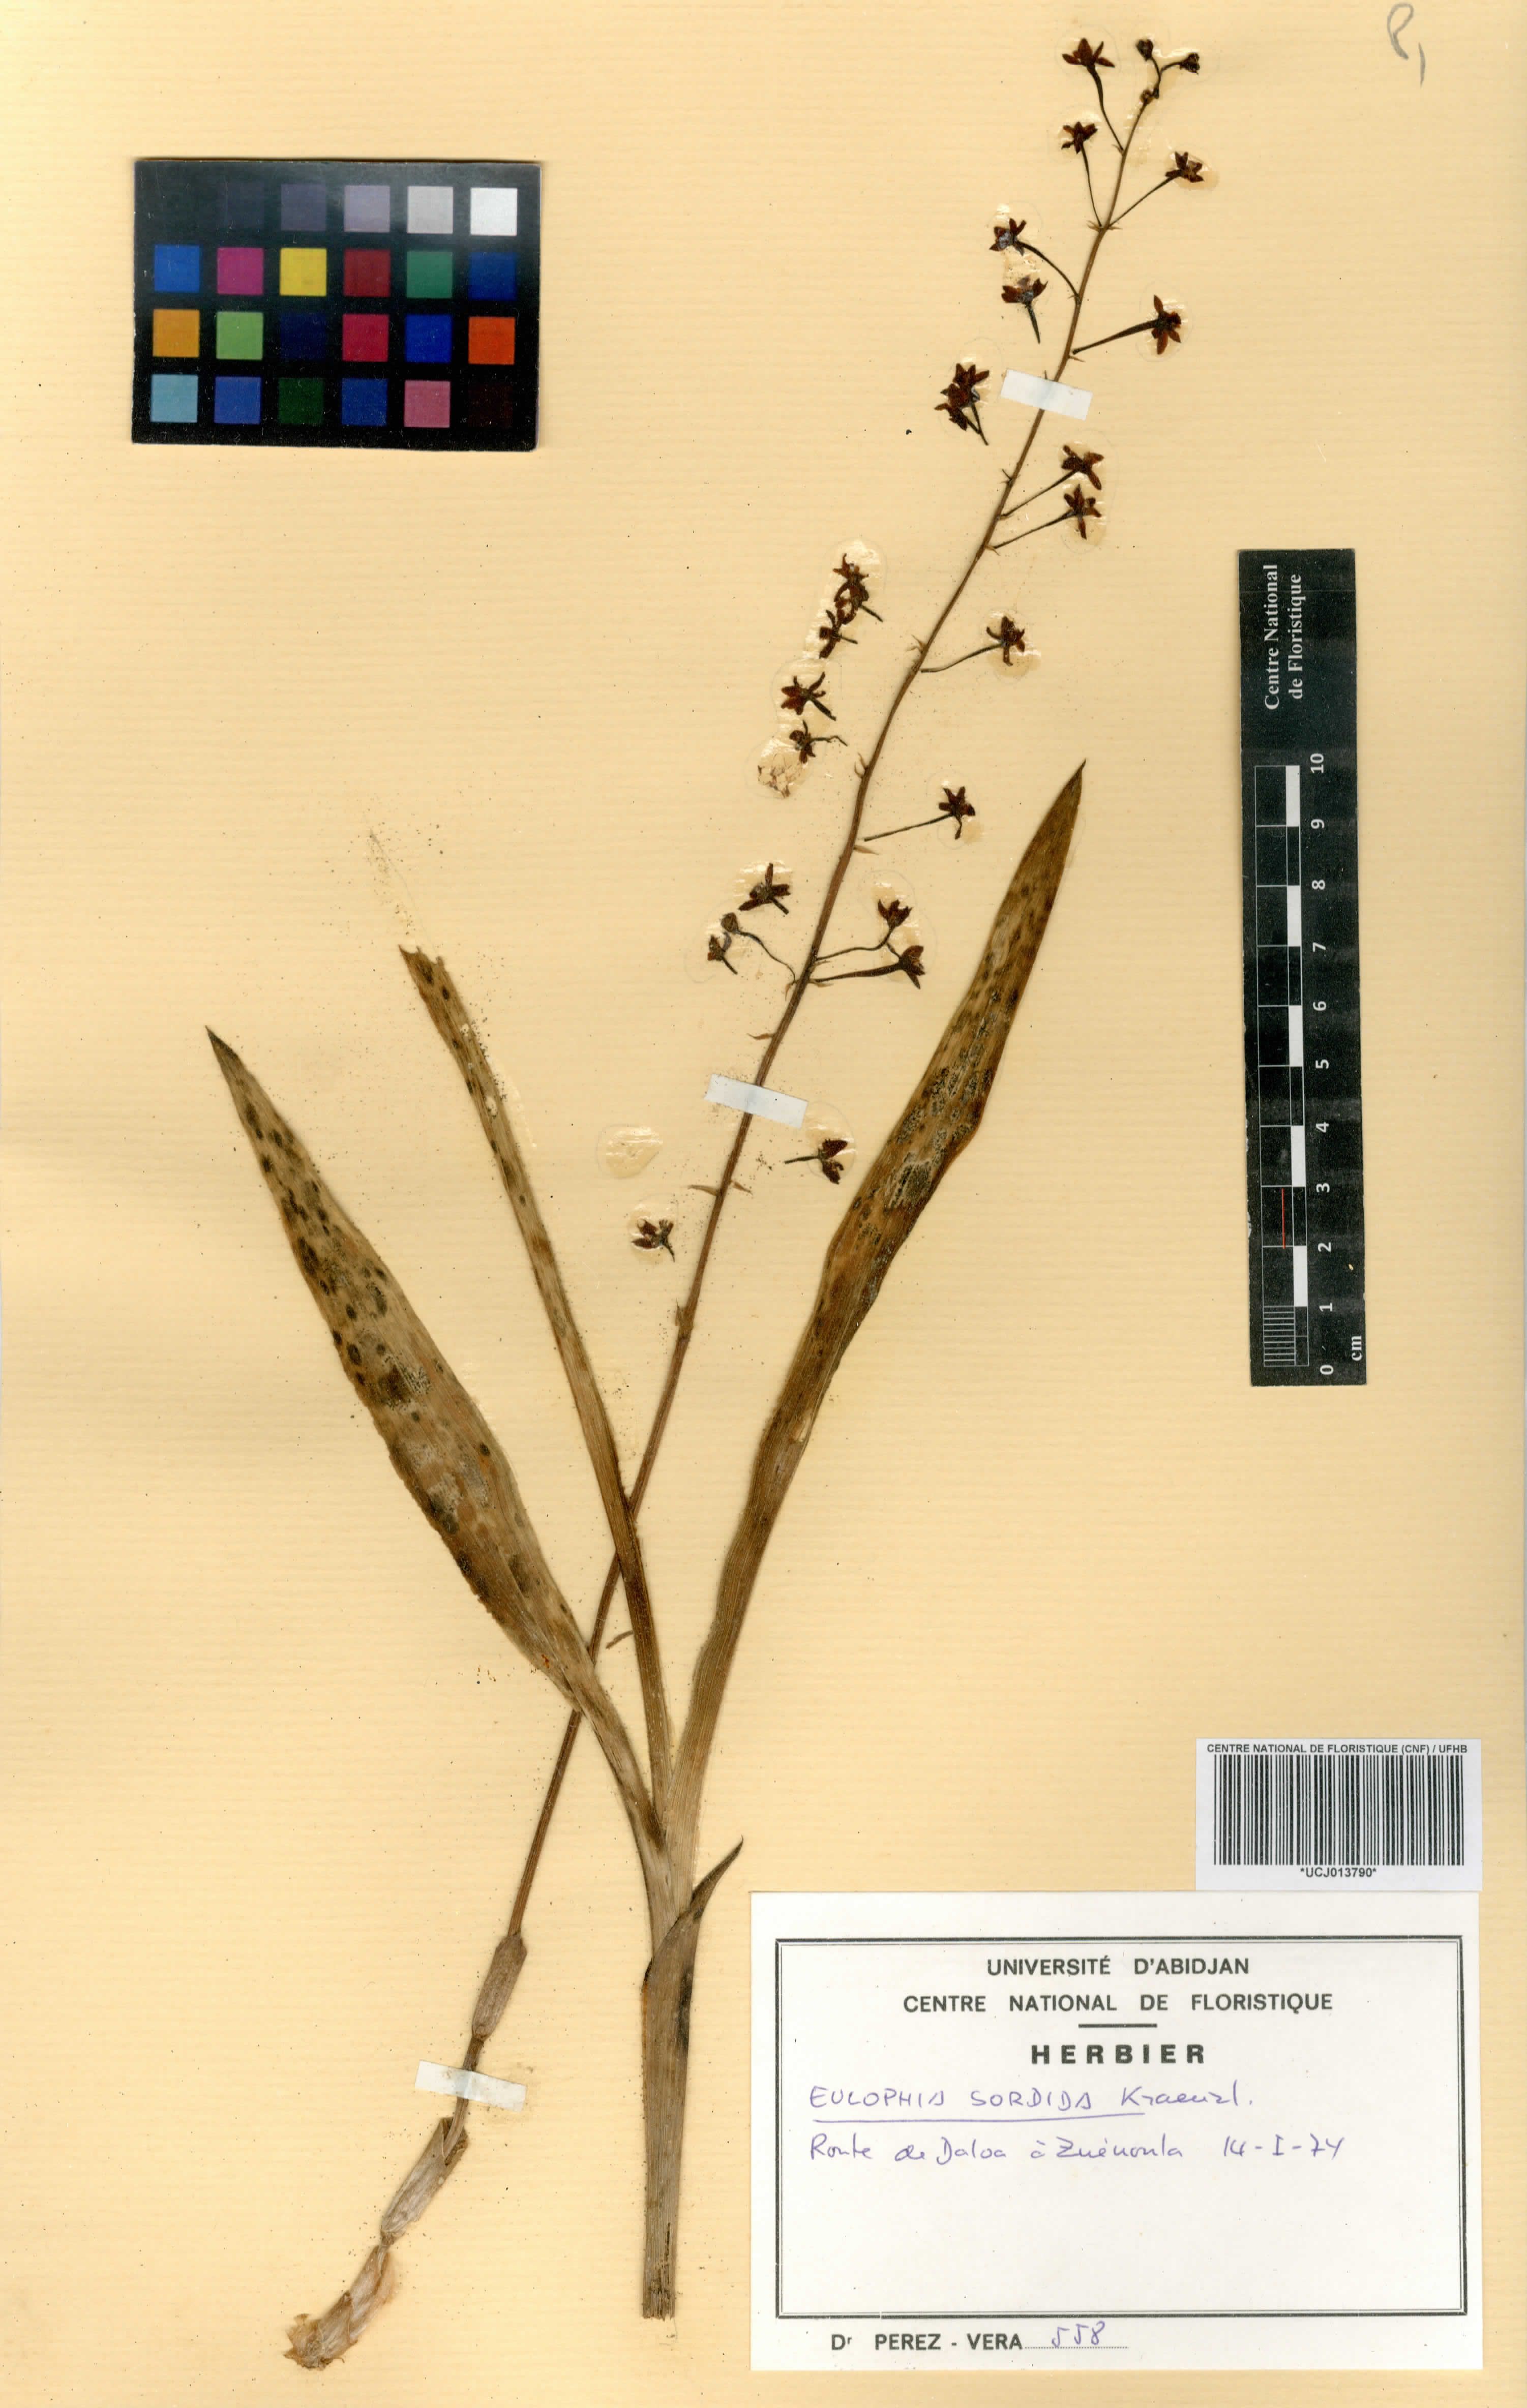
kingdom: Plantae
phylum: Tracheophyta
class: Liliopsida
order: Asparagales
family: Orchidaceae
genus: Eulophia
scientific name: Eulophia sordida
